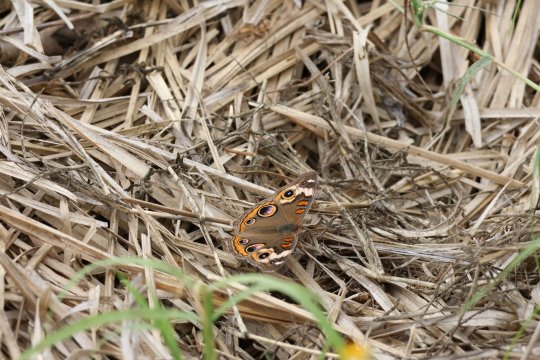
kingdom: Animalia
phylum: Arthropoda
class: Insecta
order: Lepidoptera
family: Nymphalidae
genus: Junonia
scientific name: Junonia coenia
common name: Common Buckeye
